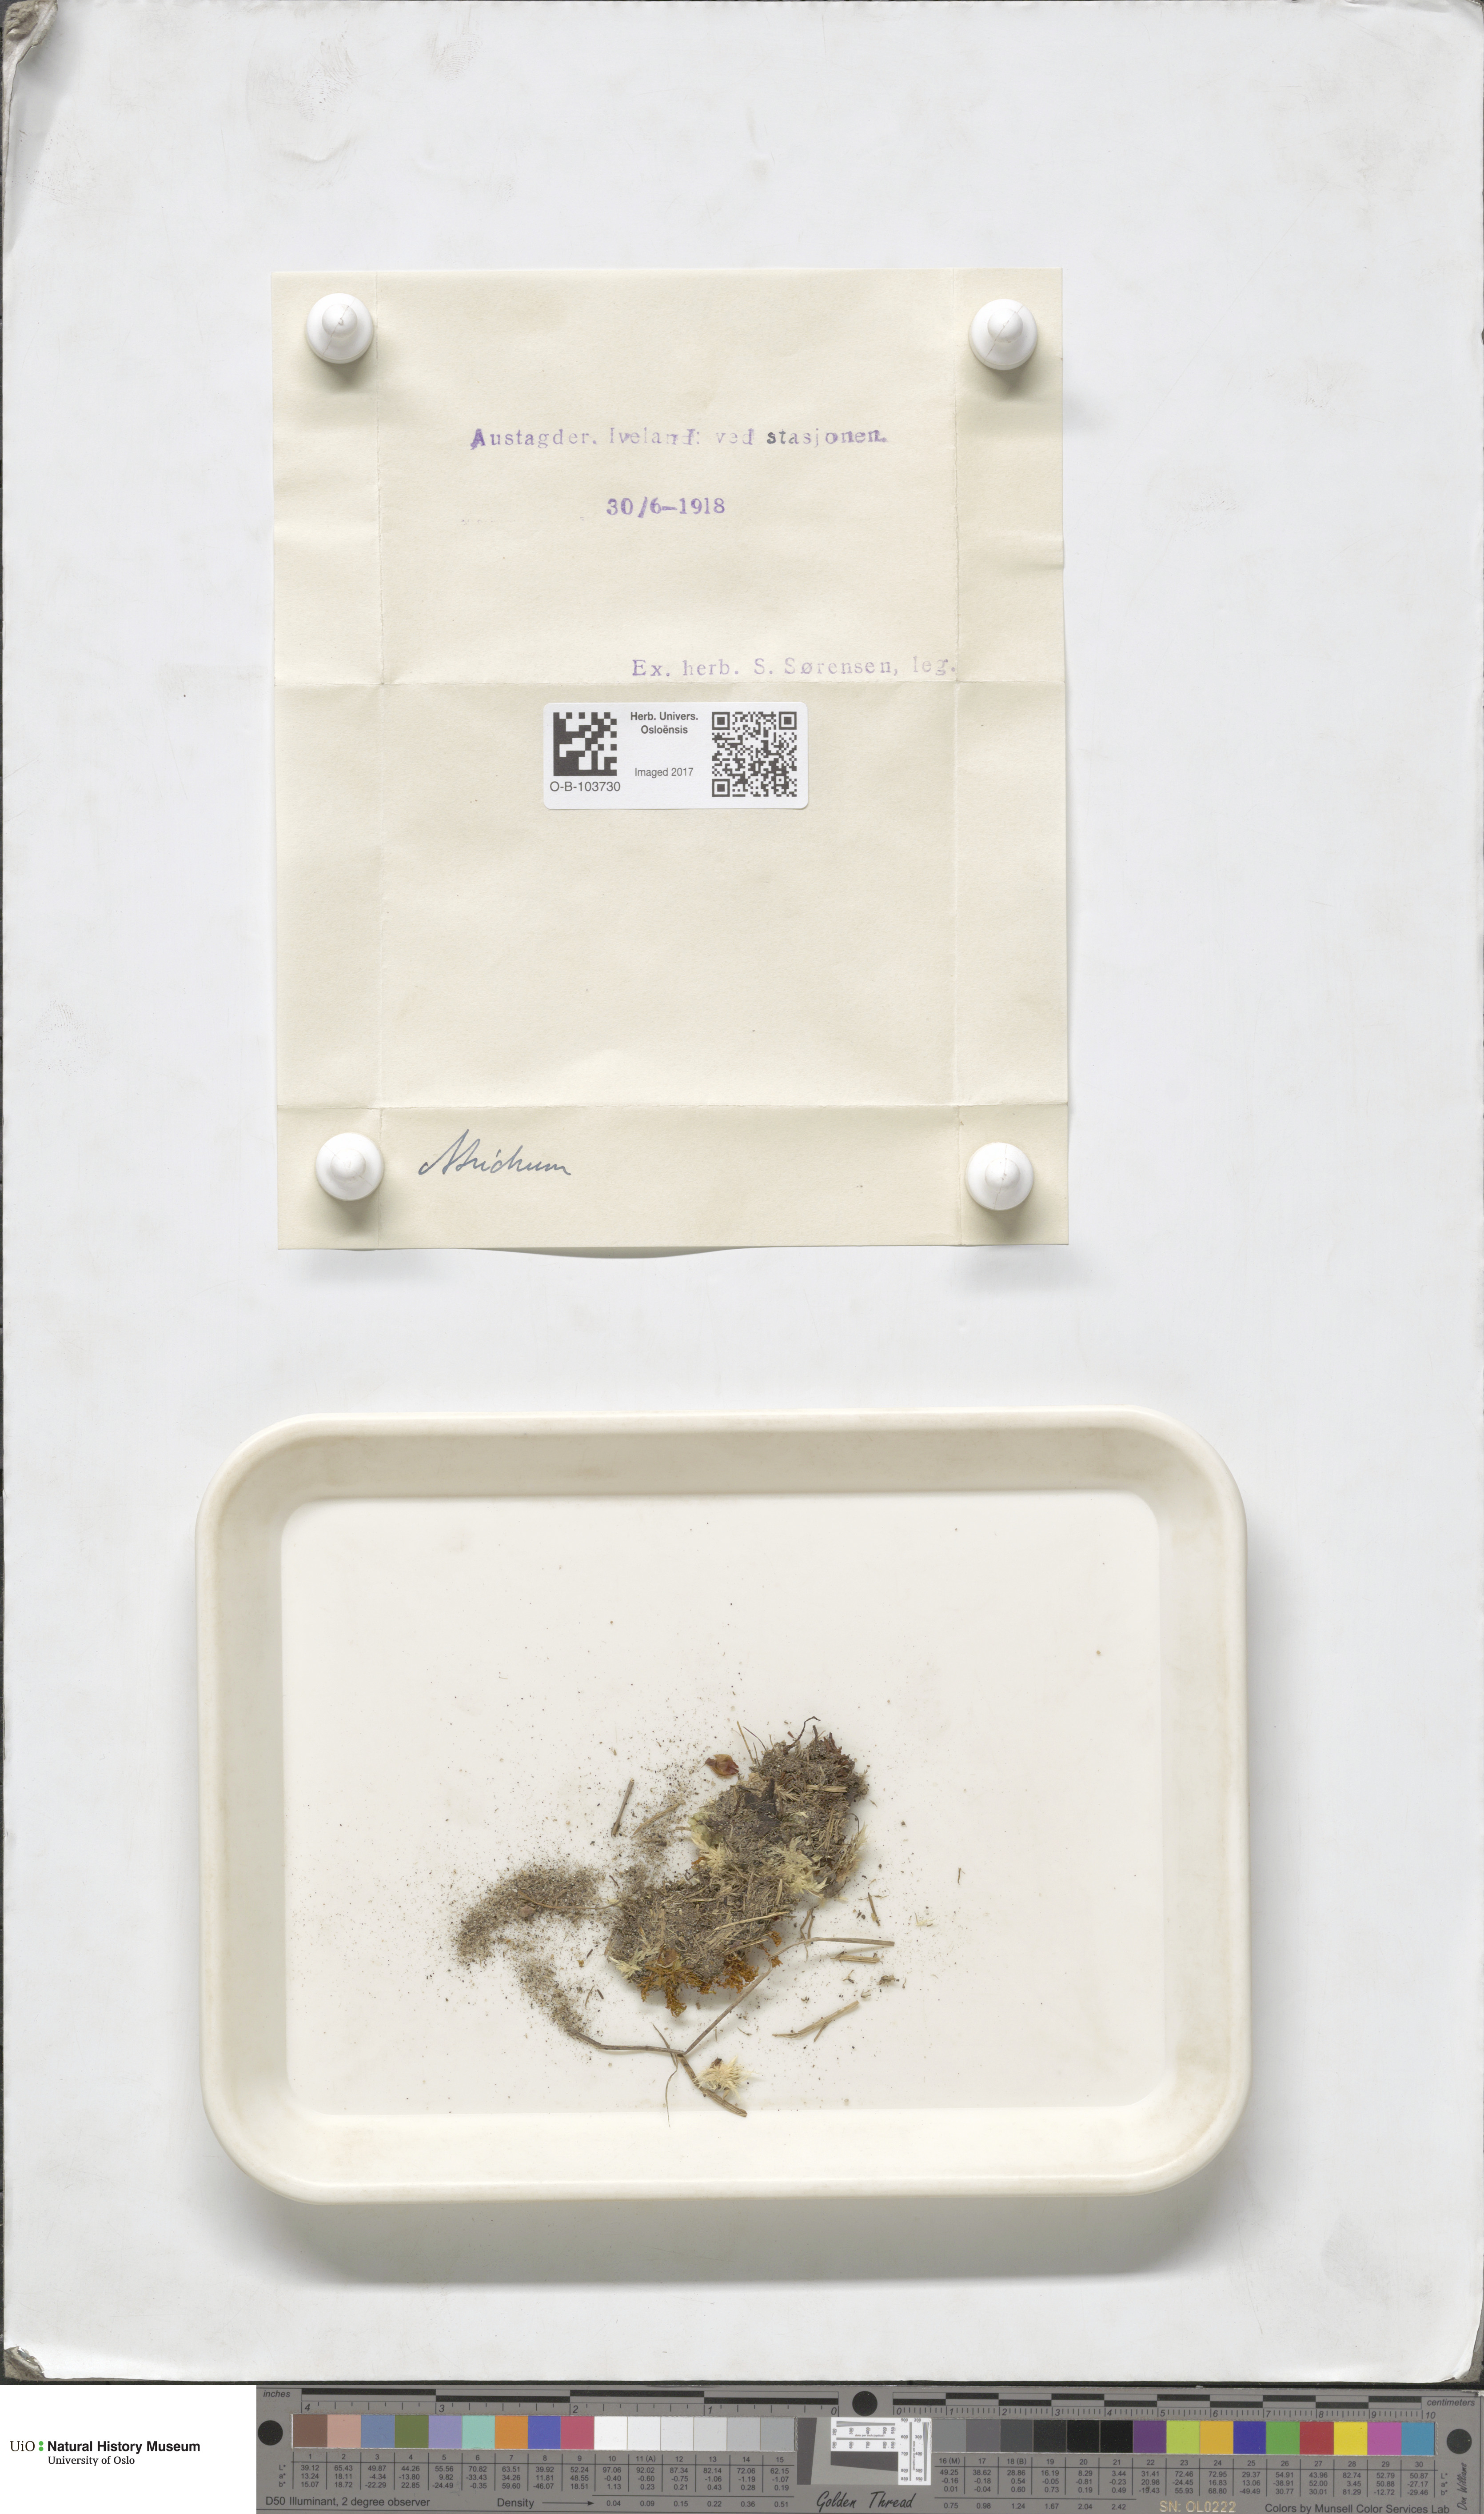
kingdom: Plantae
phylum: Bryophyta
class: Polytrichopsida
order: Polytrichales
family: Polytrichaceae
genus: Atrichum
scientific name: Atrichum
